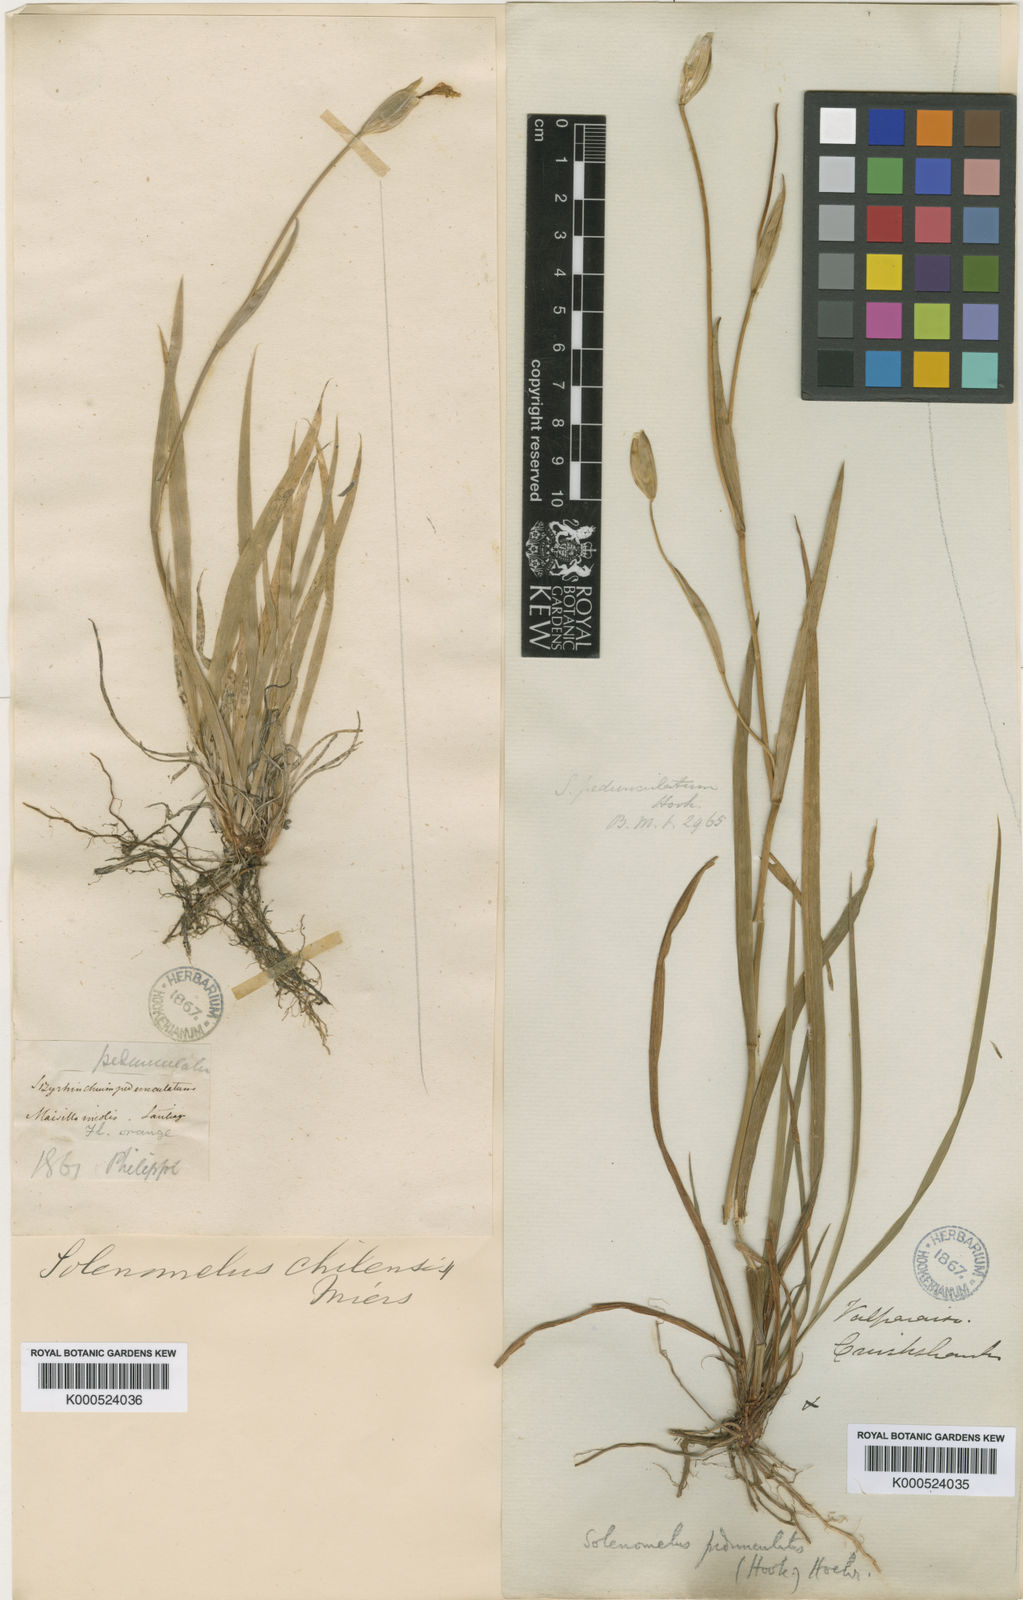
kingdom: Plantae
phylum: Tracheophyta
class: Liliopsida
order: Asparagales
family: Iridaceae
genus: Solenomelus
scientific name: Solenomelus pedunculatus
